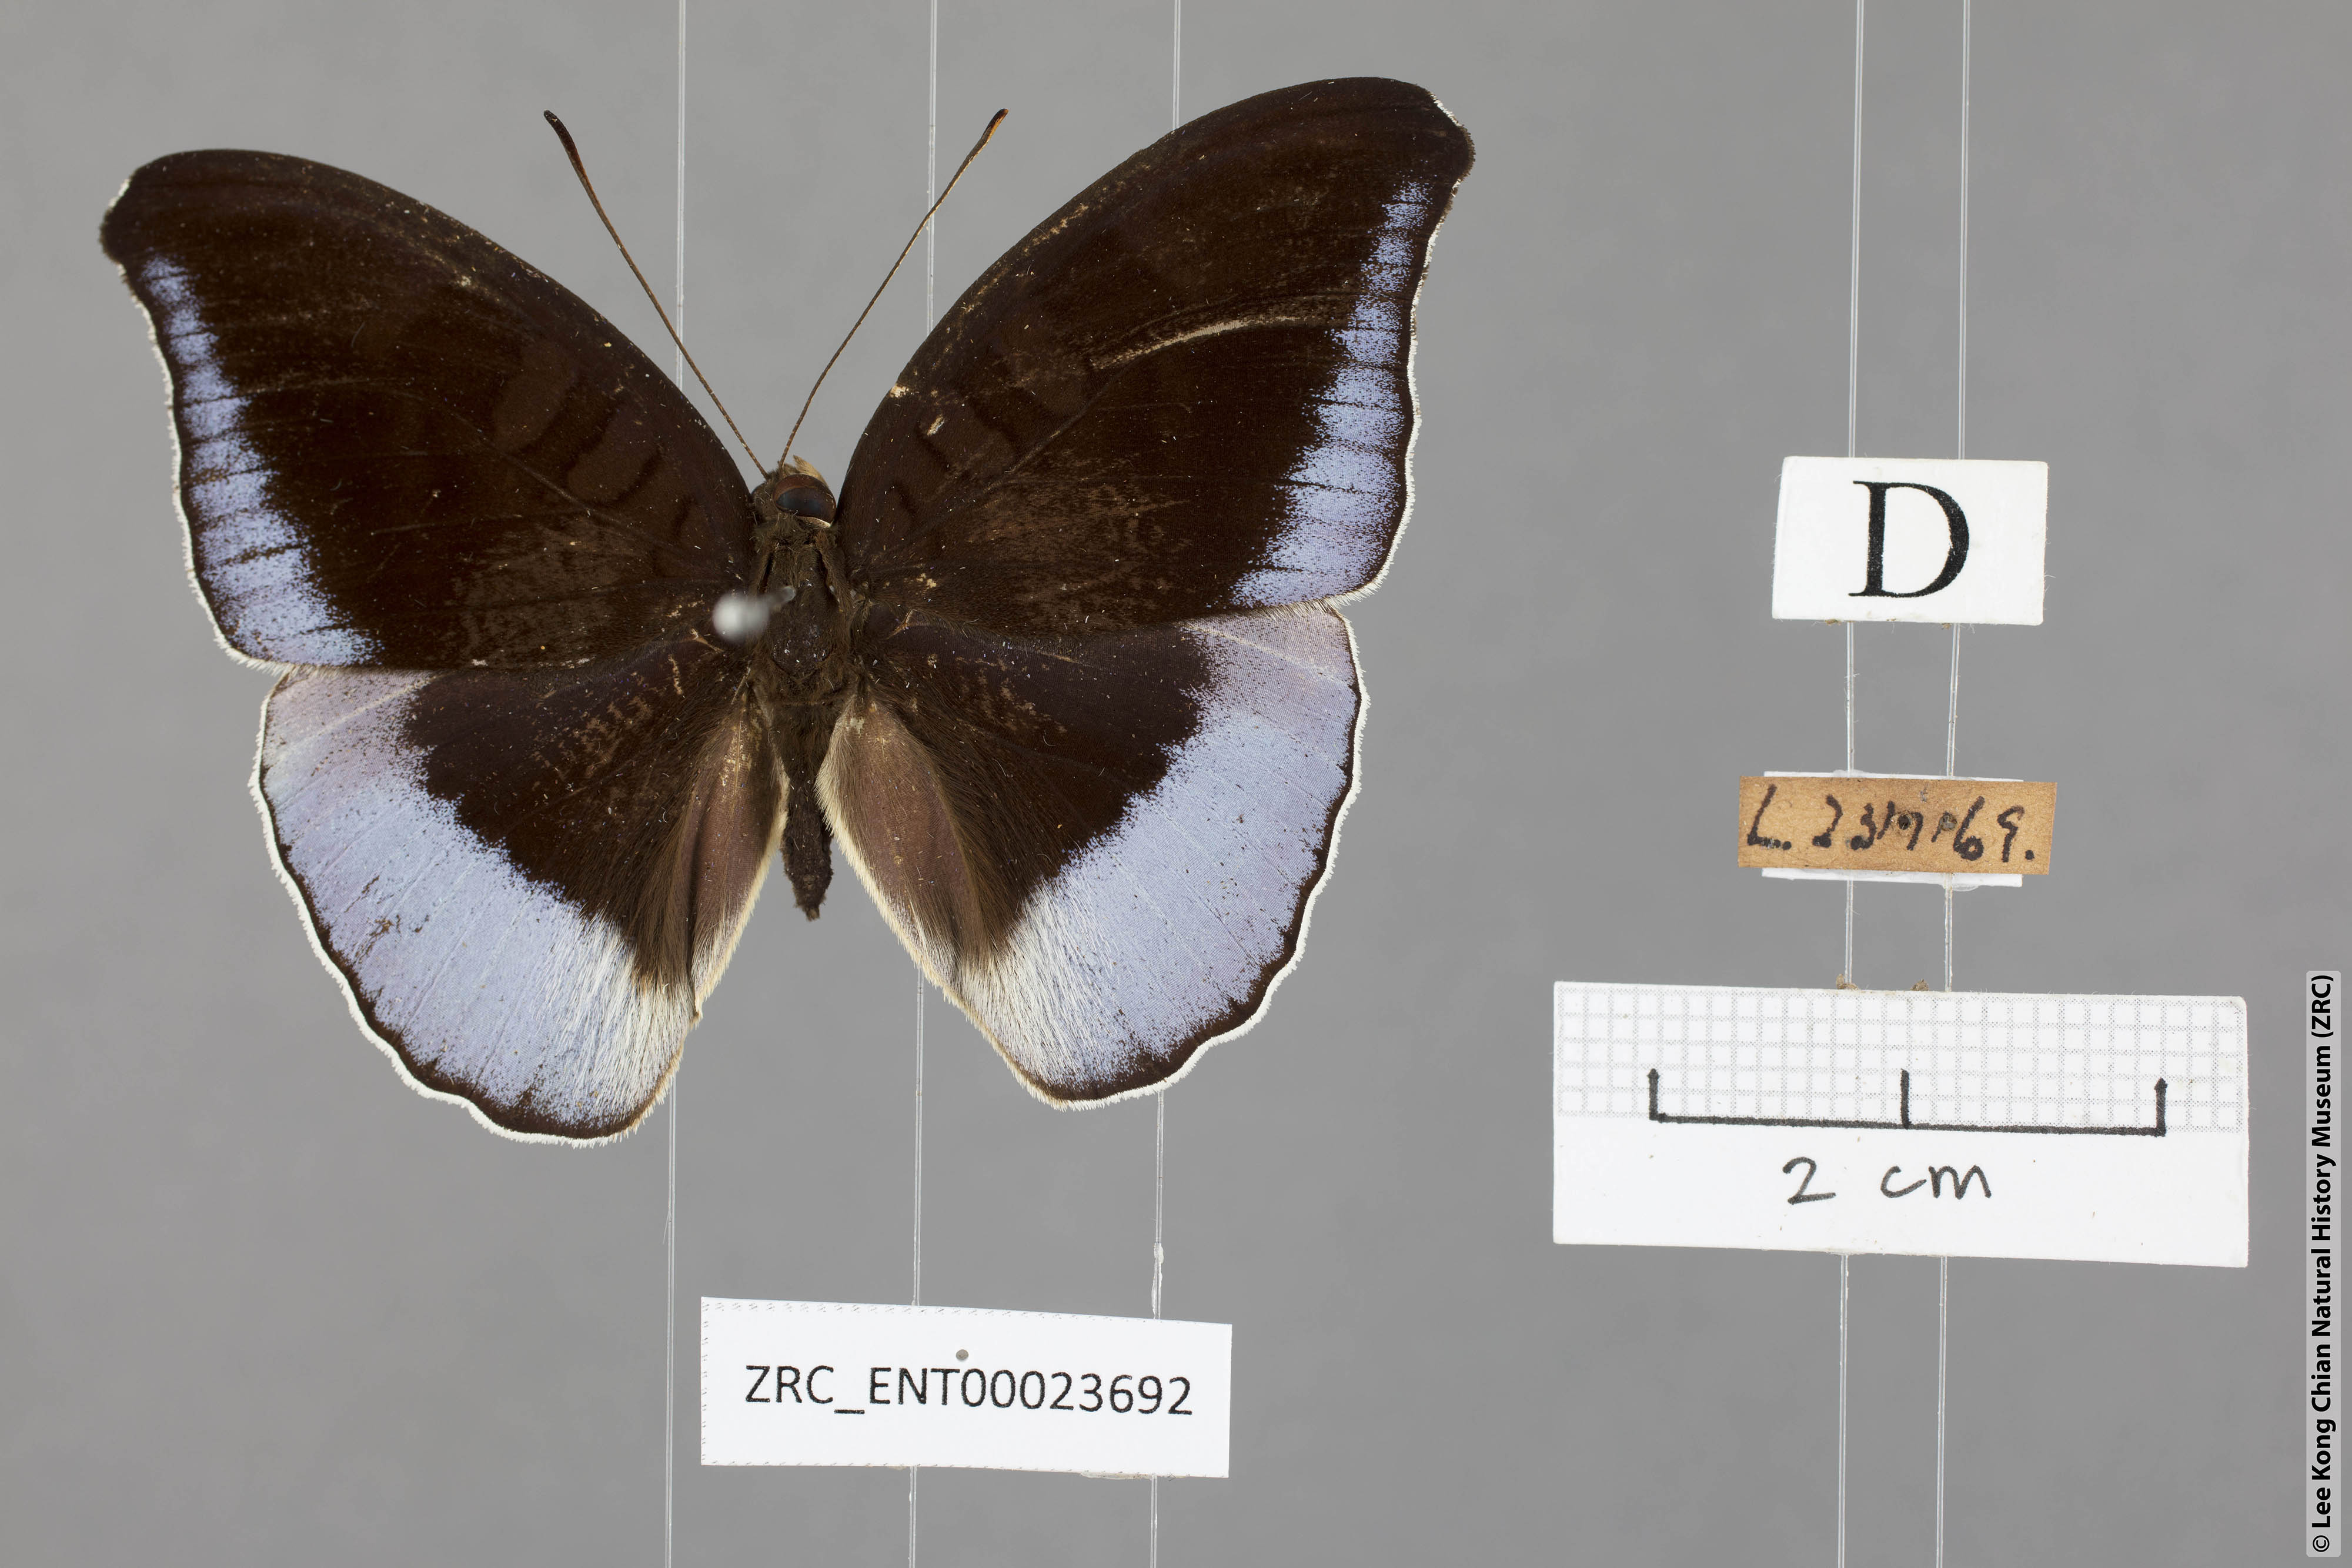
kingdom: Animalia
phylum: Arthropoda
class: Insecta
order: Lepidoptera
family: Nymphalidae
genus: Tanaecia
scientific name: Tanaecia flora
